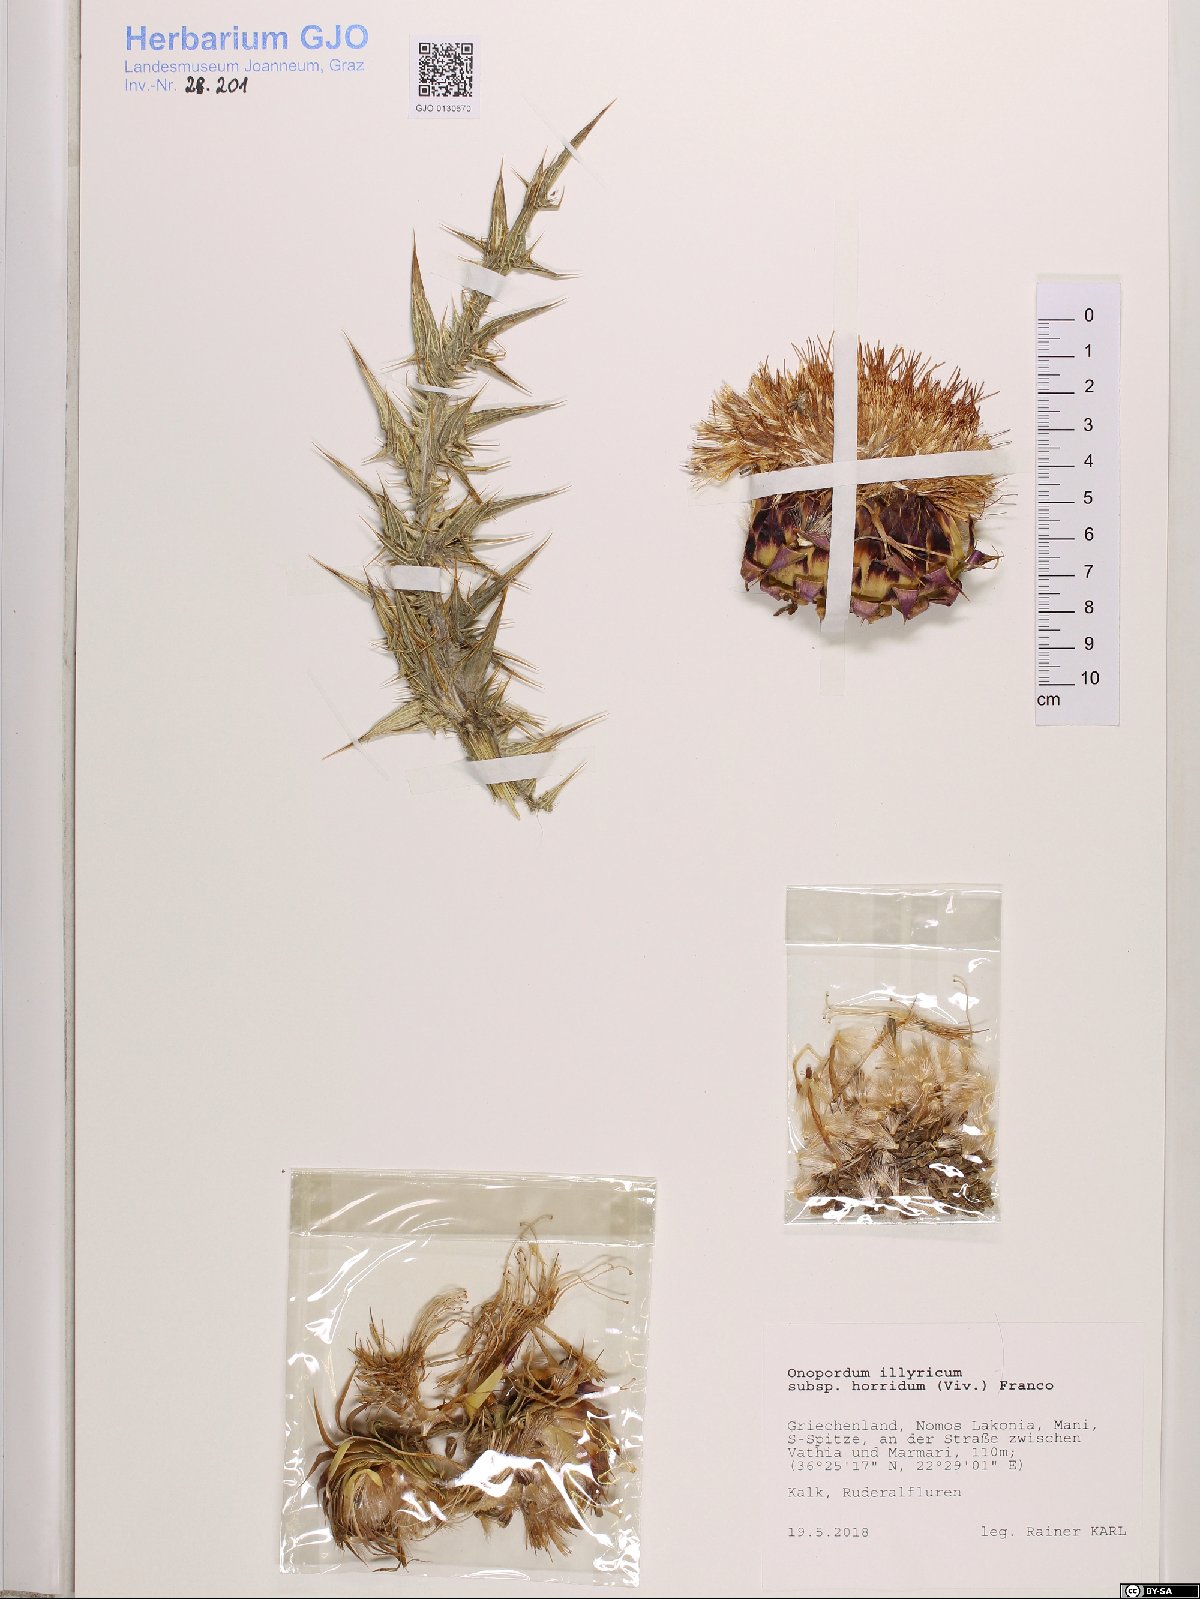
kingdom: Plantae
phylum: Tracheophyta
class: Magnoliopsida
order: Asterales
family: Asteraceae
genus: Onopordum
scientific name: Onopordum horridum
